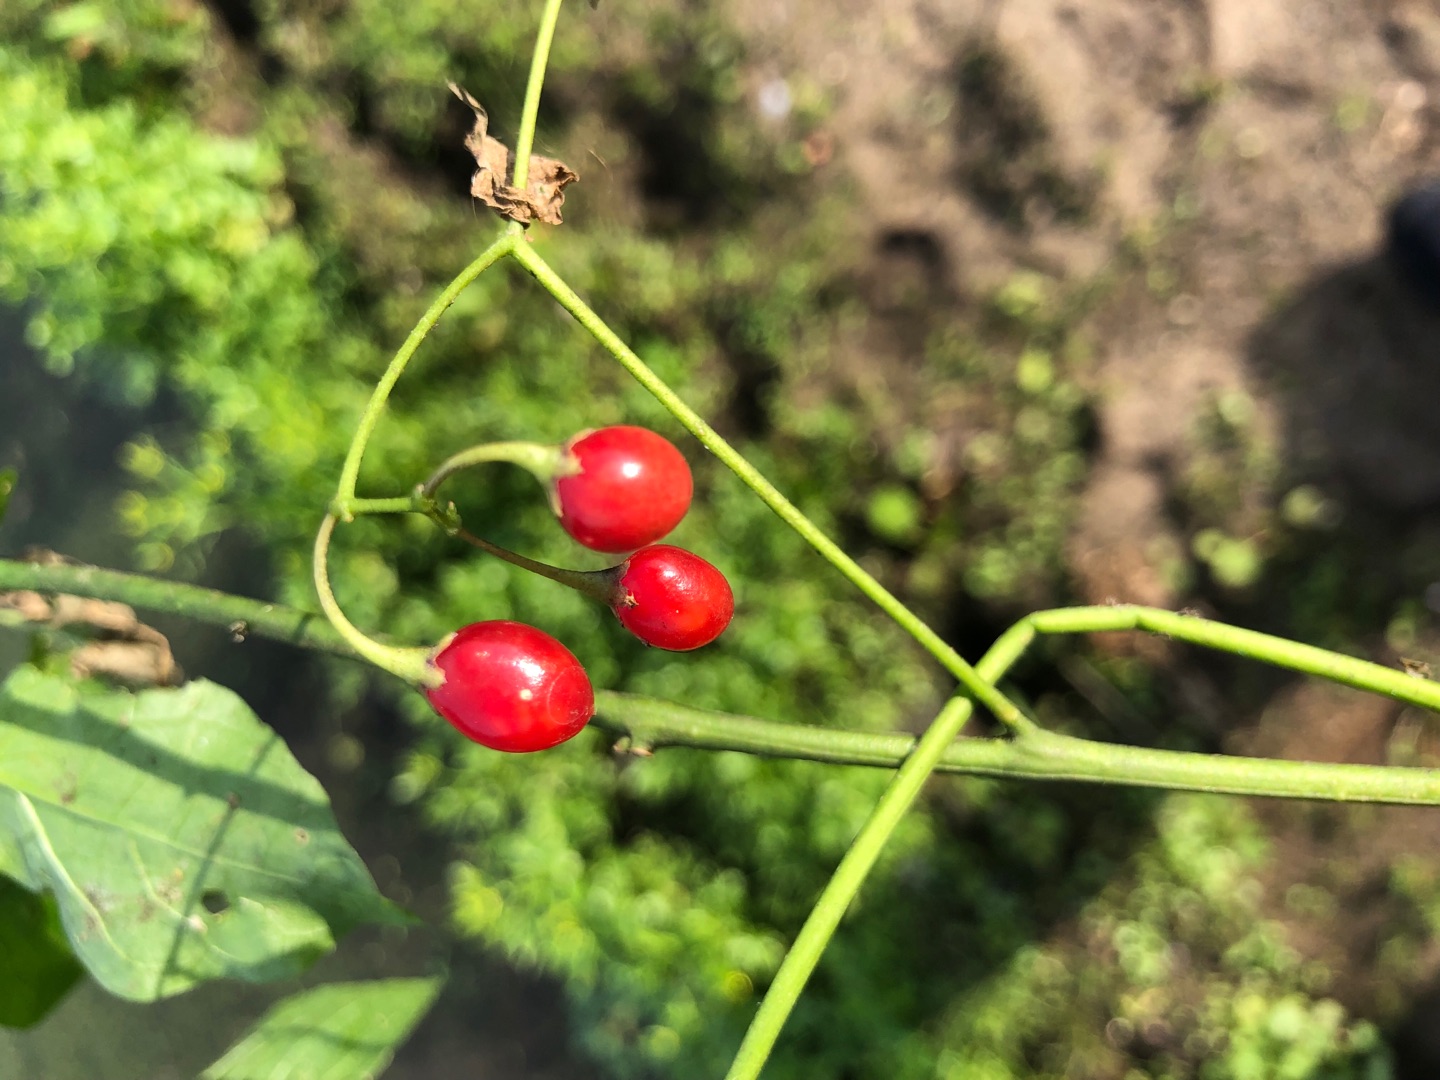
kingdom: Plantae
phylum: Tracheophyta
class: Magnoliopsida
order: Solanales
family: Solanaceae
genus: Solanum
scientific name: Solanum dulcamara
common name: Bittersød natskygge
